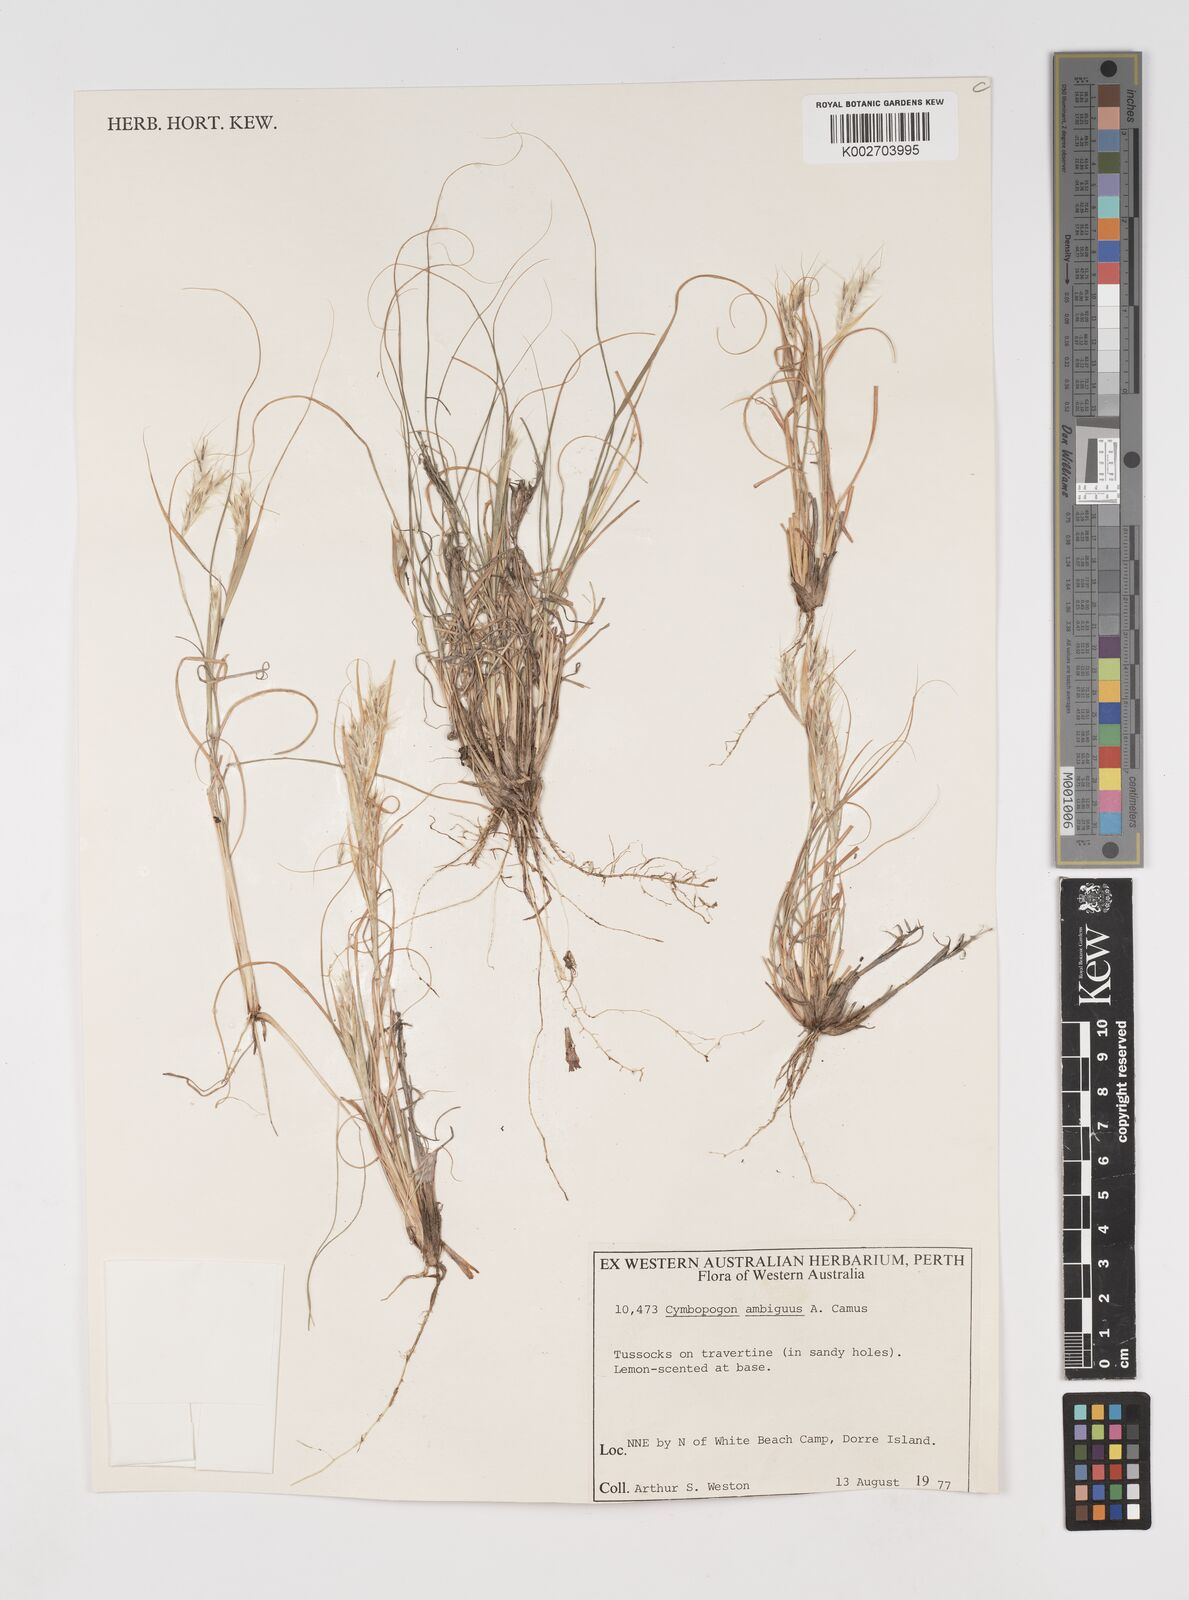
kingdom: Plantae
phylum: Tracheophyta
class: Liliopsida
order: Poales
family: Poaceae
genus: Cymbopogon
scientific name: Cymbopogon ambiguus
